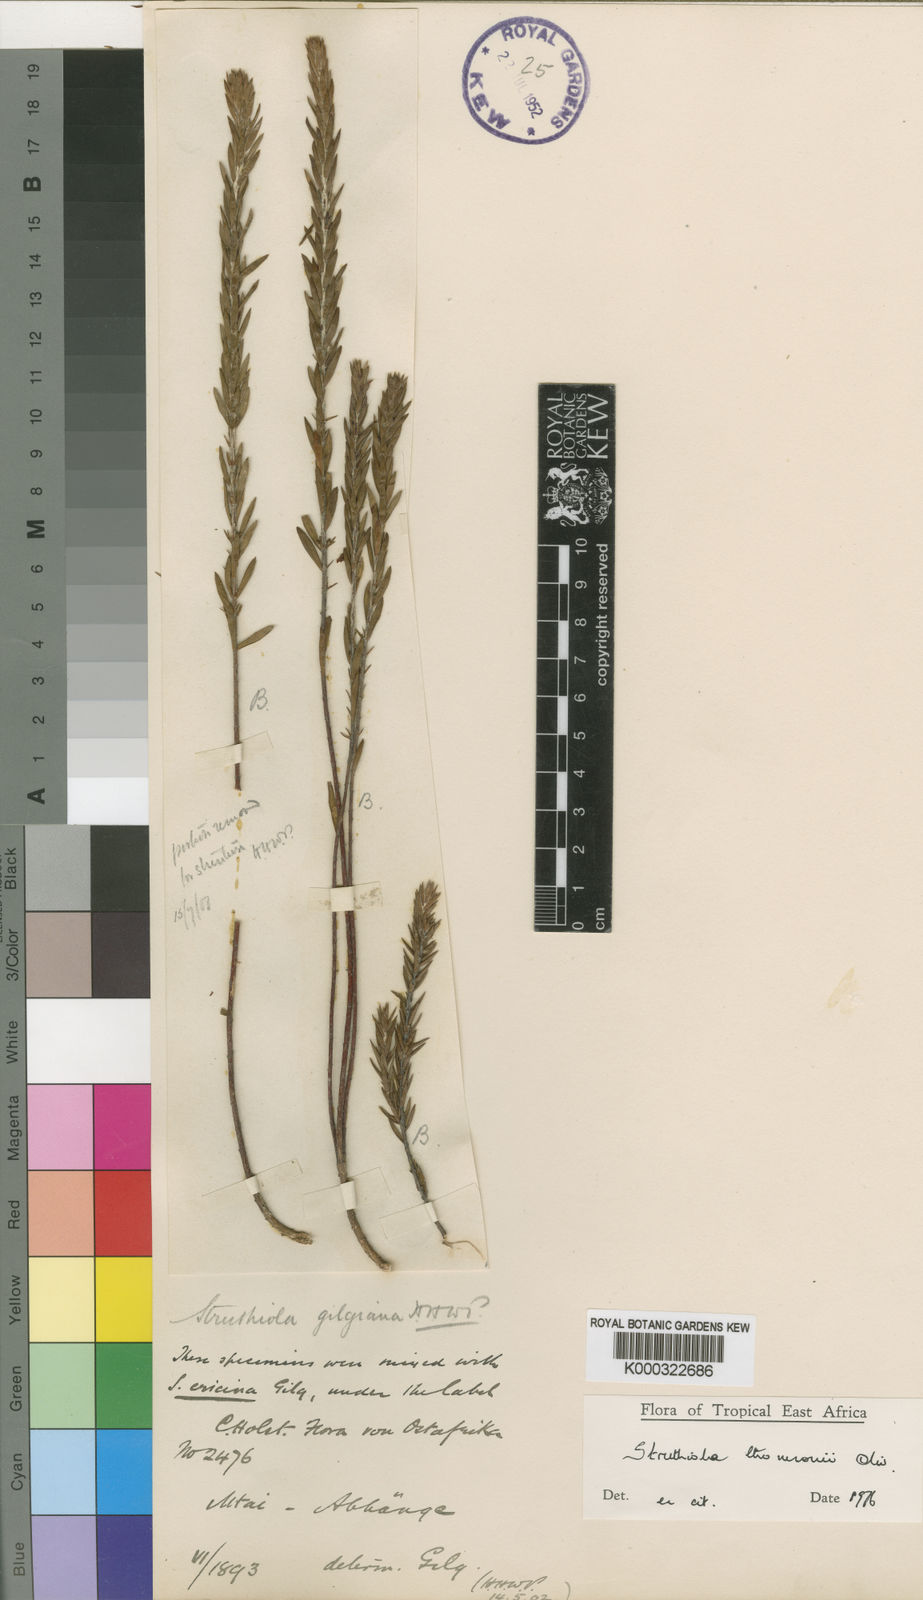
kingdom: Plantae
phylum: Tracheophyta
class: Magnoliopsida
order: Malvales
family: Thymelaeaceae
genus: Struthiola
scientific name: Struthiola thomsonii
